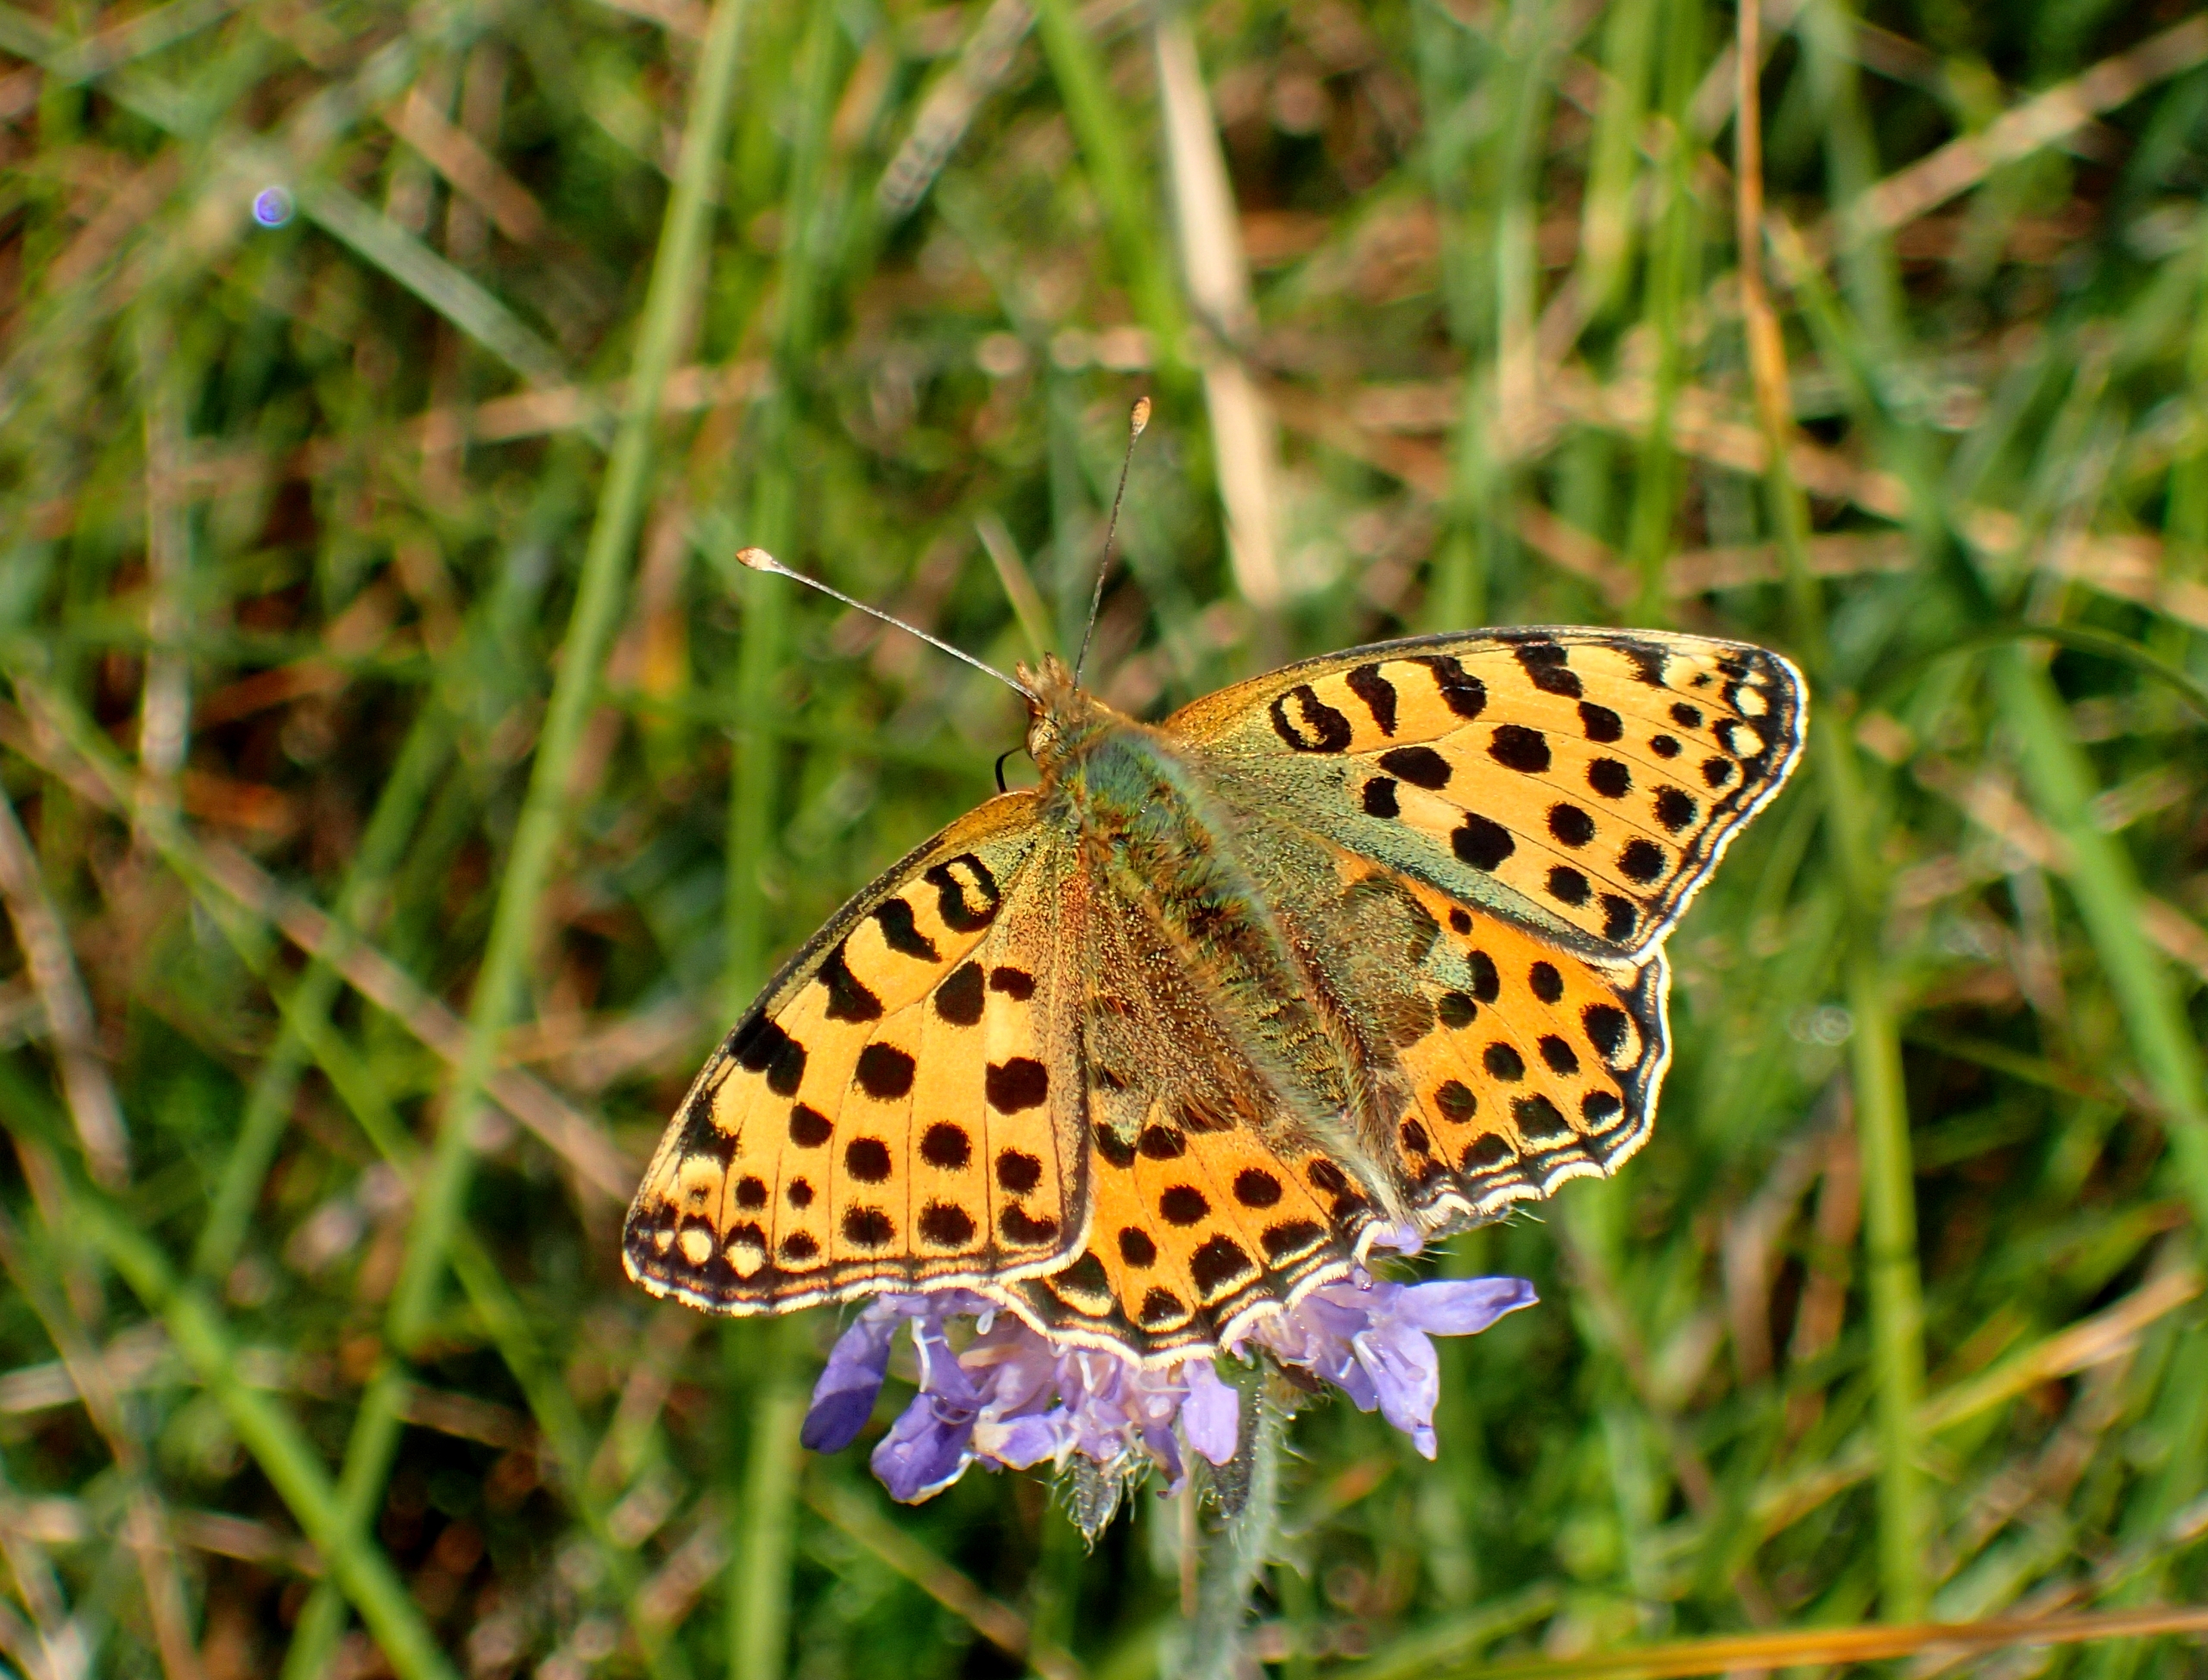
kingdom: Animalia
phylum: Arthropoda
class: Insecta
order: Lepidoptera
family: Nymphalidae
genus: Issoria
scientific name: Issoria lathonia
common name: Storplettet perlemorsommerfugl
